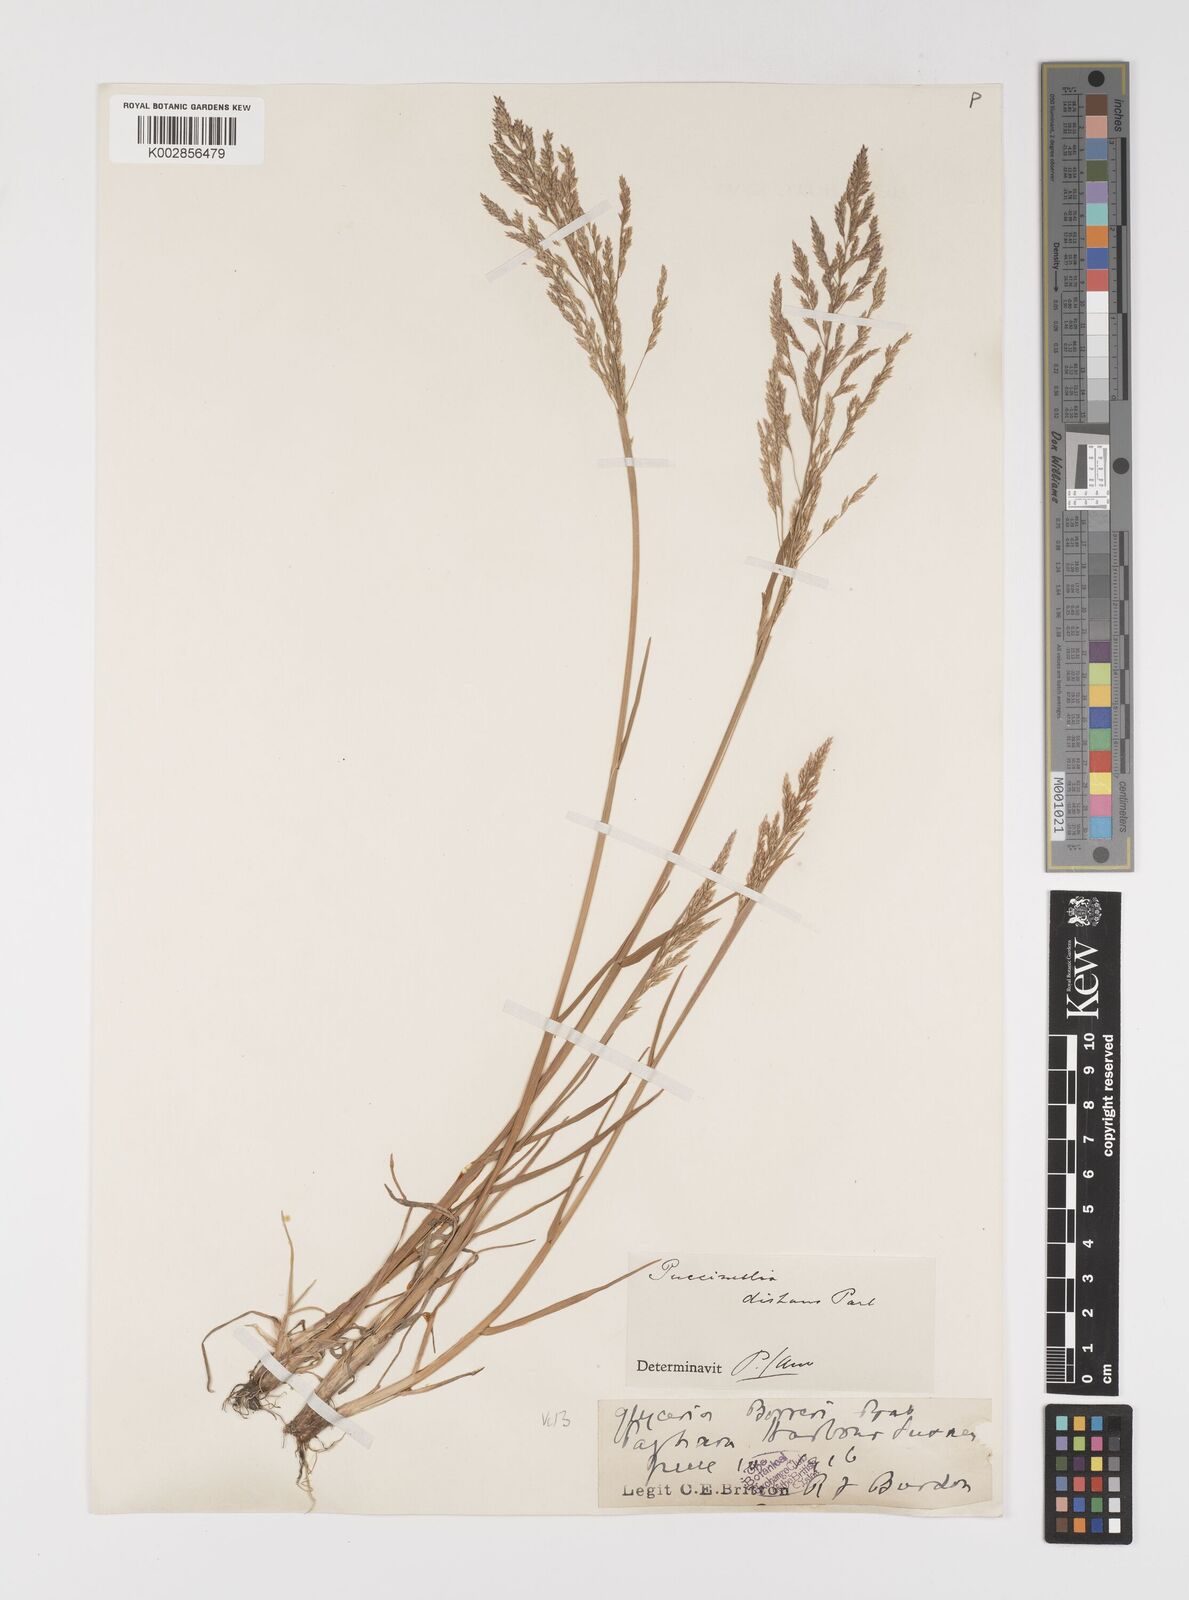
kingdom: Plantae
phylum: Tracheophyta
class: Liliopsida
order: Poales
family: Poaceae
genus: Puccinellia
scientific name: Puccinellia distans
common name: Weeping alkaligrass
